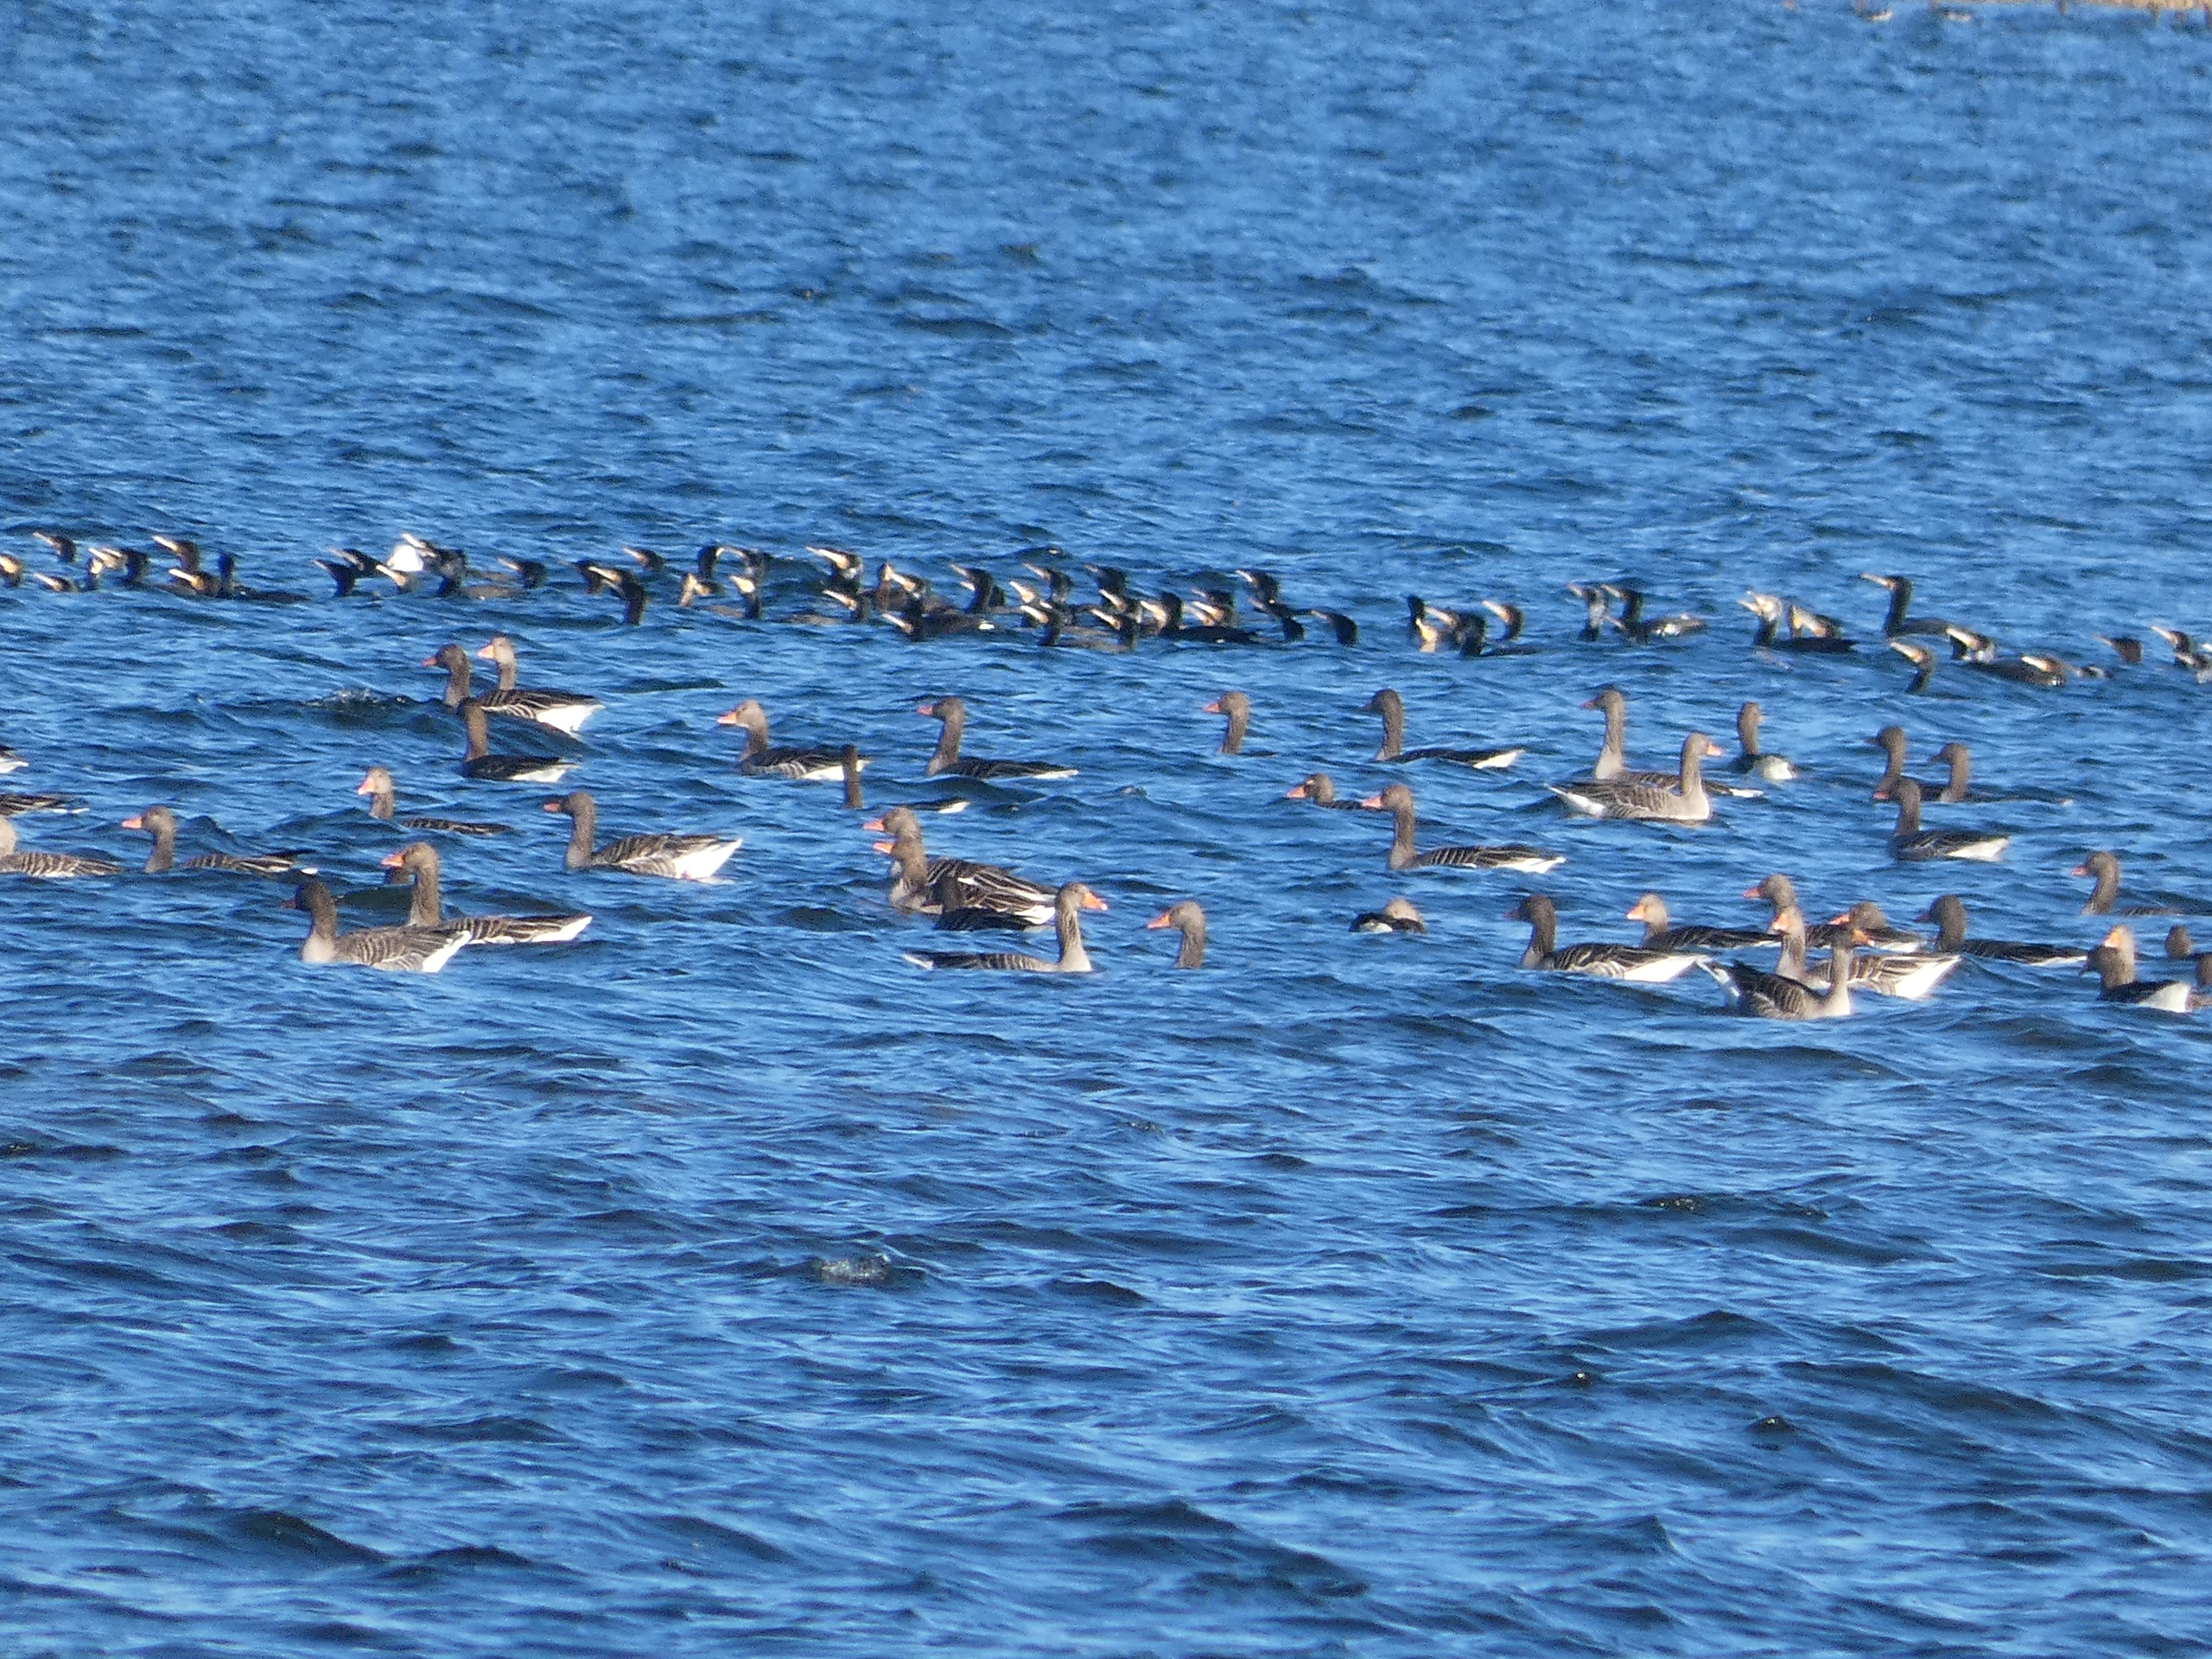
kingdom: Animalia
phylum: Chordata
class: Aves
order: Anseriformes
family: Anatidae
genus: Anser
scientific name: Anser anser
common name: Grågås
